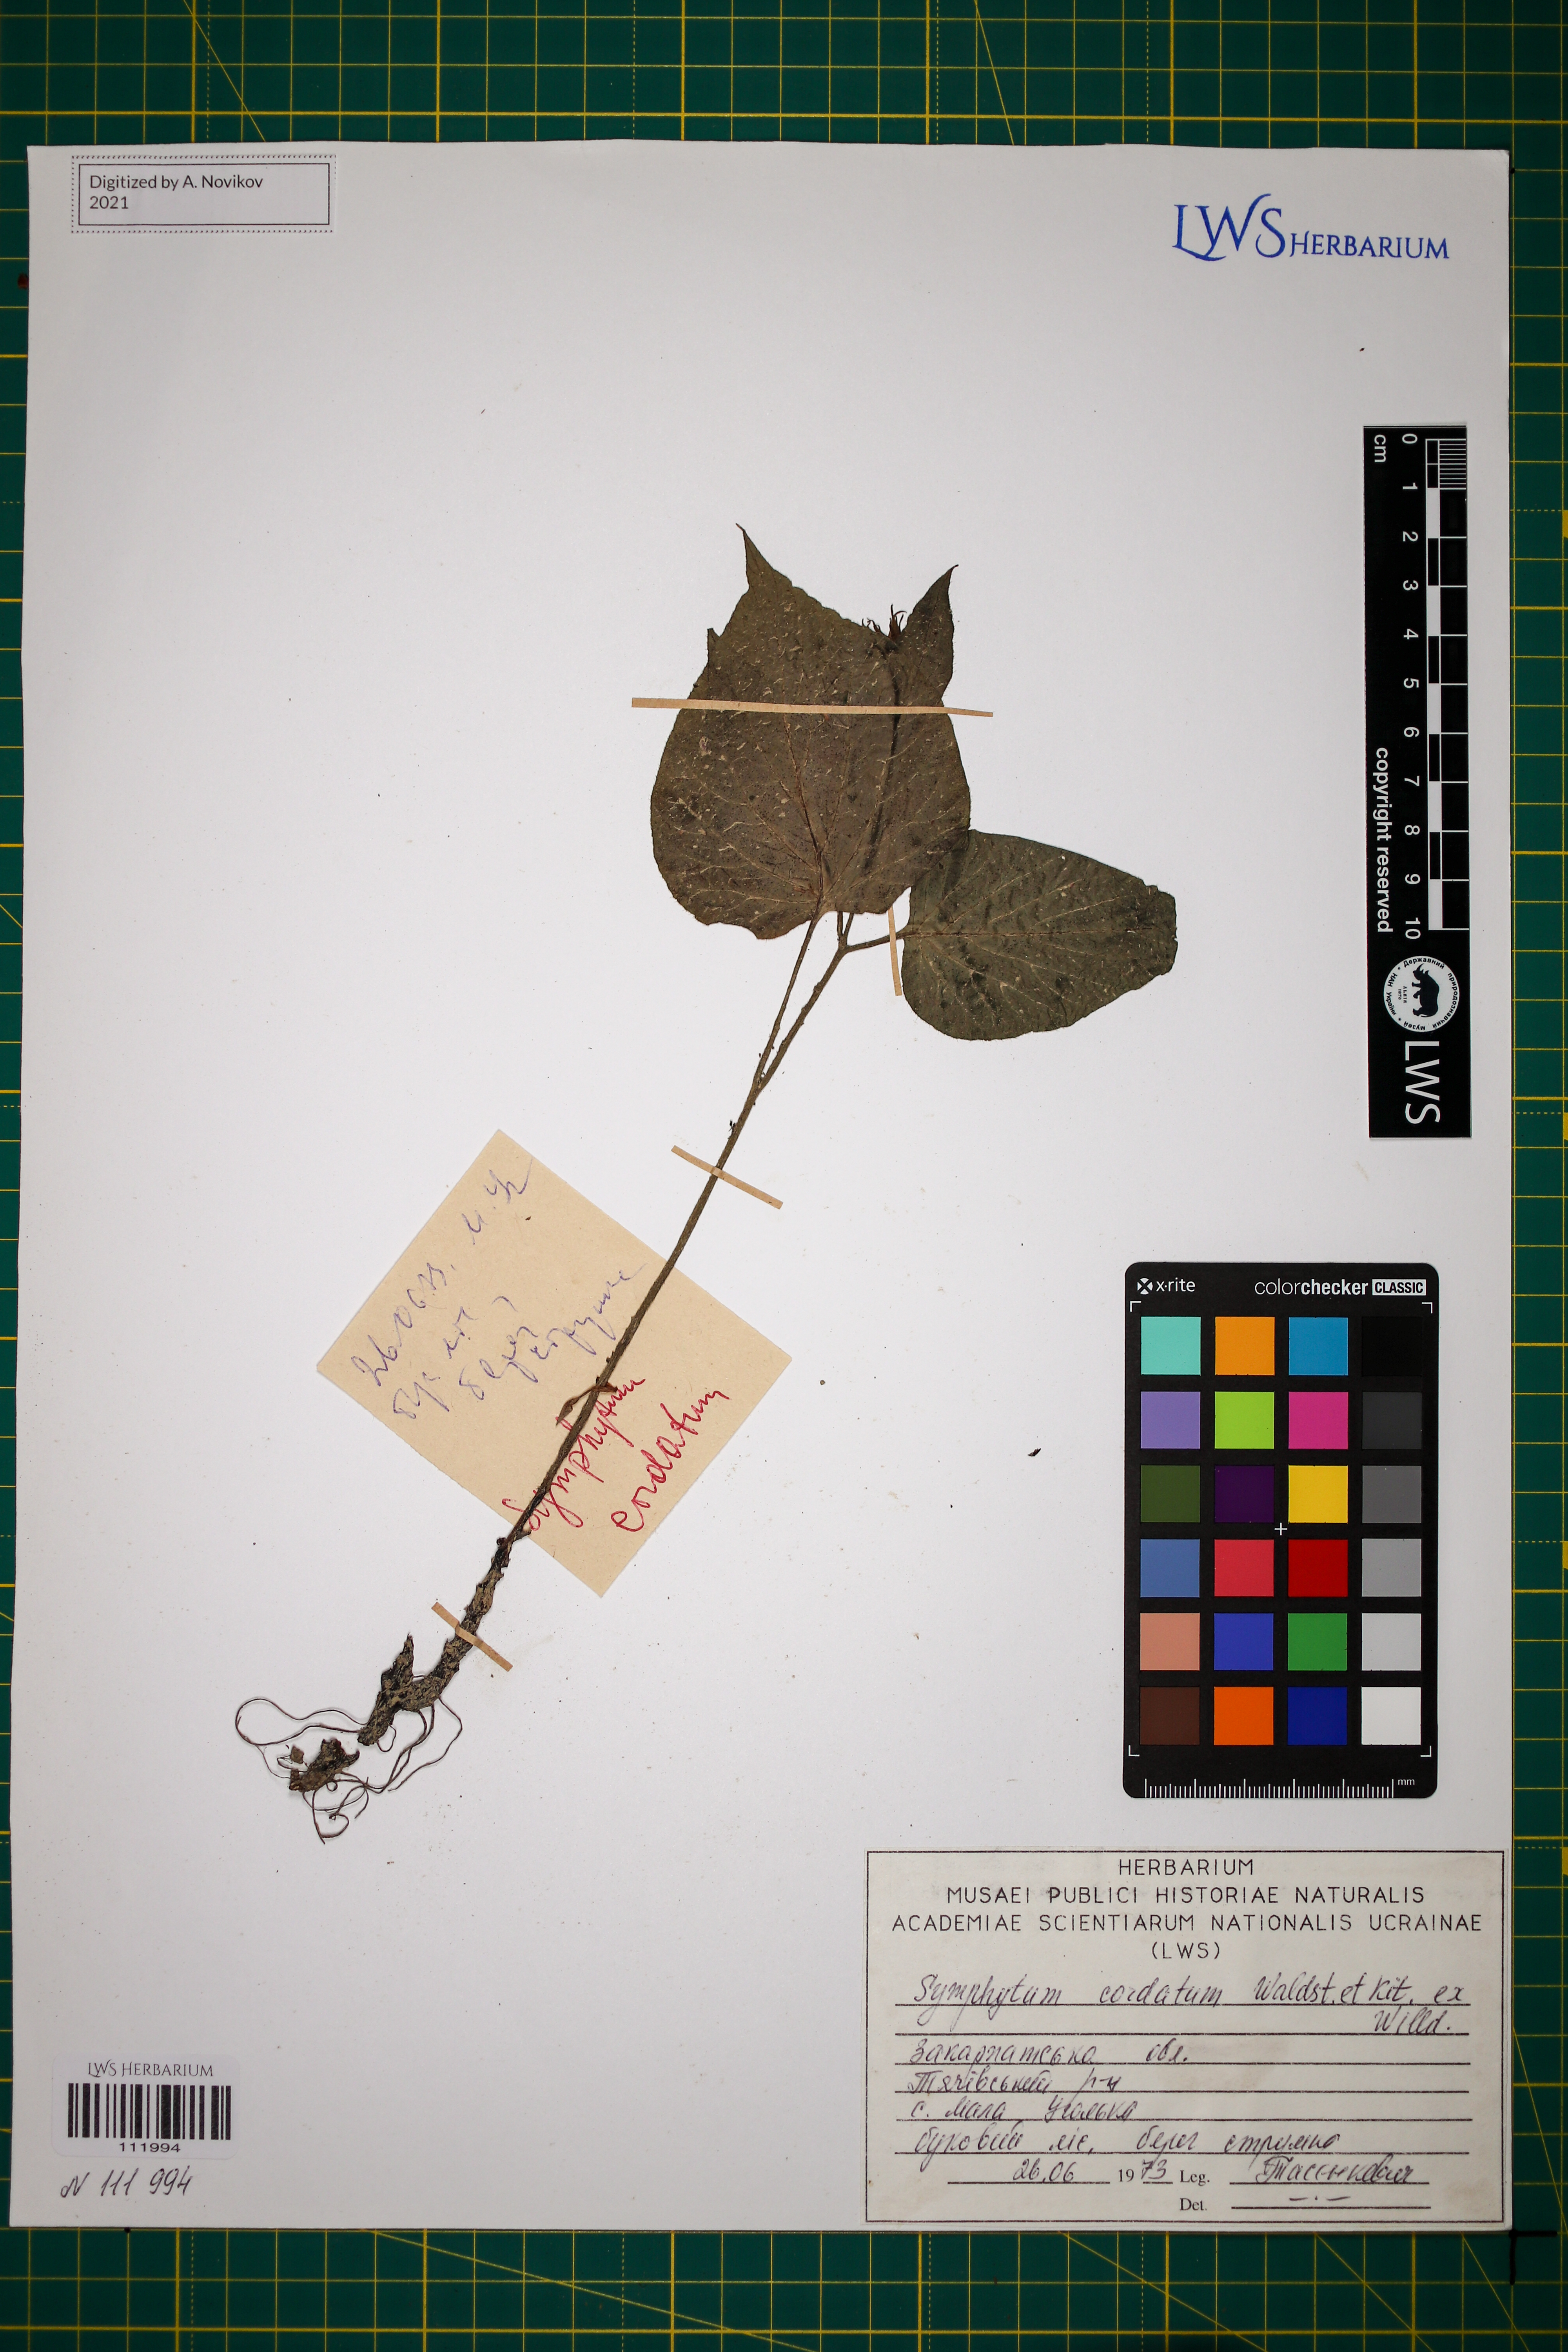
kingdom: Plantae
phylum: Tracheophyta
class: Magnoliopsida
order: Boraginales
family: Boraginaceae
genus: Symphytum
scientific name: Symphytum cordatum
